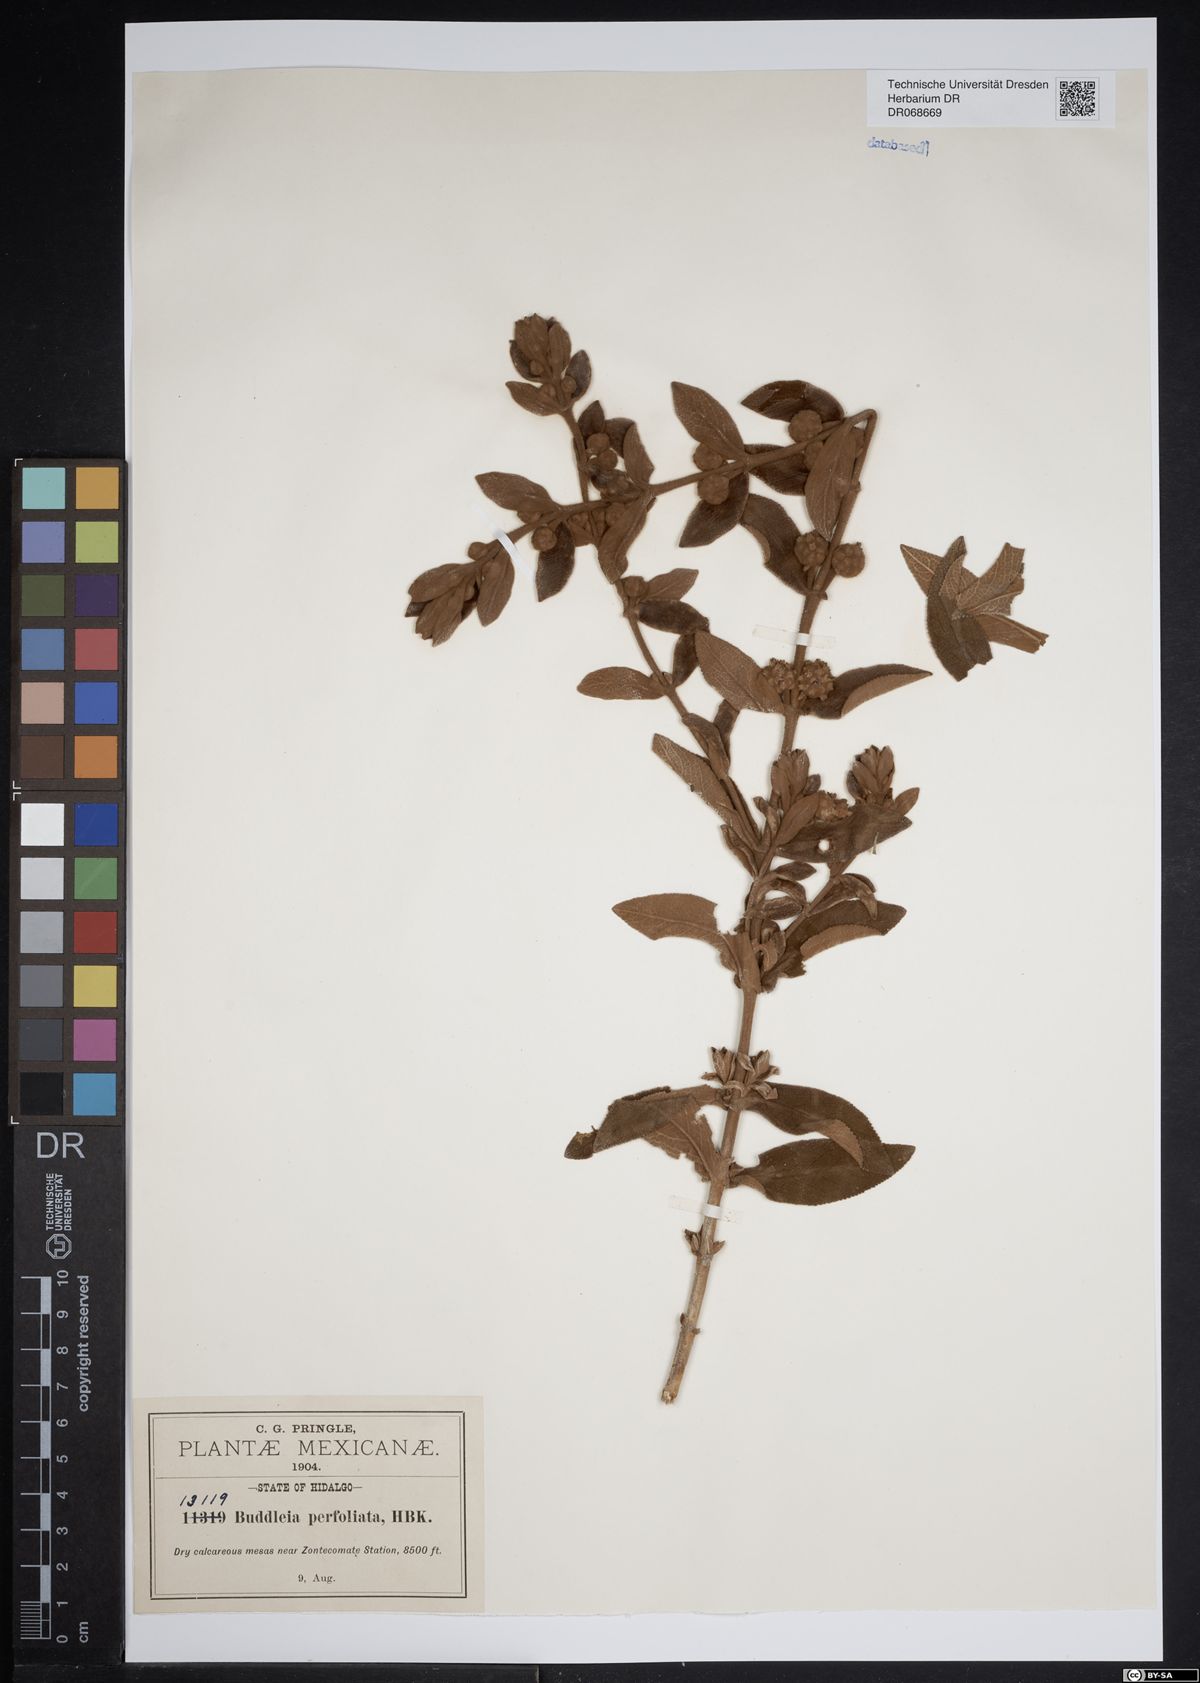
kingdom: Plantae
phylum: Tracheophyta
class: Magnoliopsida
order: Lamiales
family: Scrophulariaceae
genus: Buddleja
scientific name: Buddleja perfoliata
